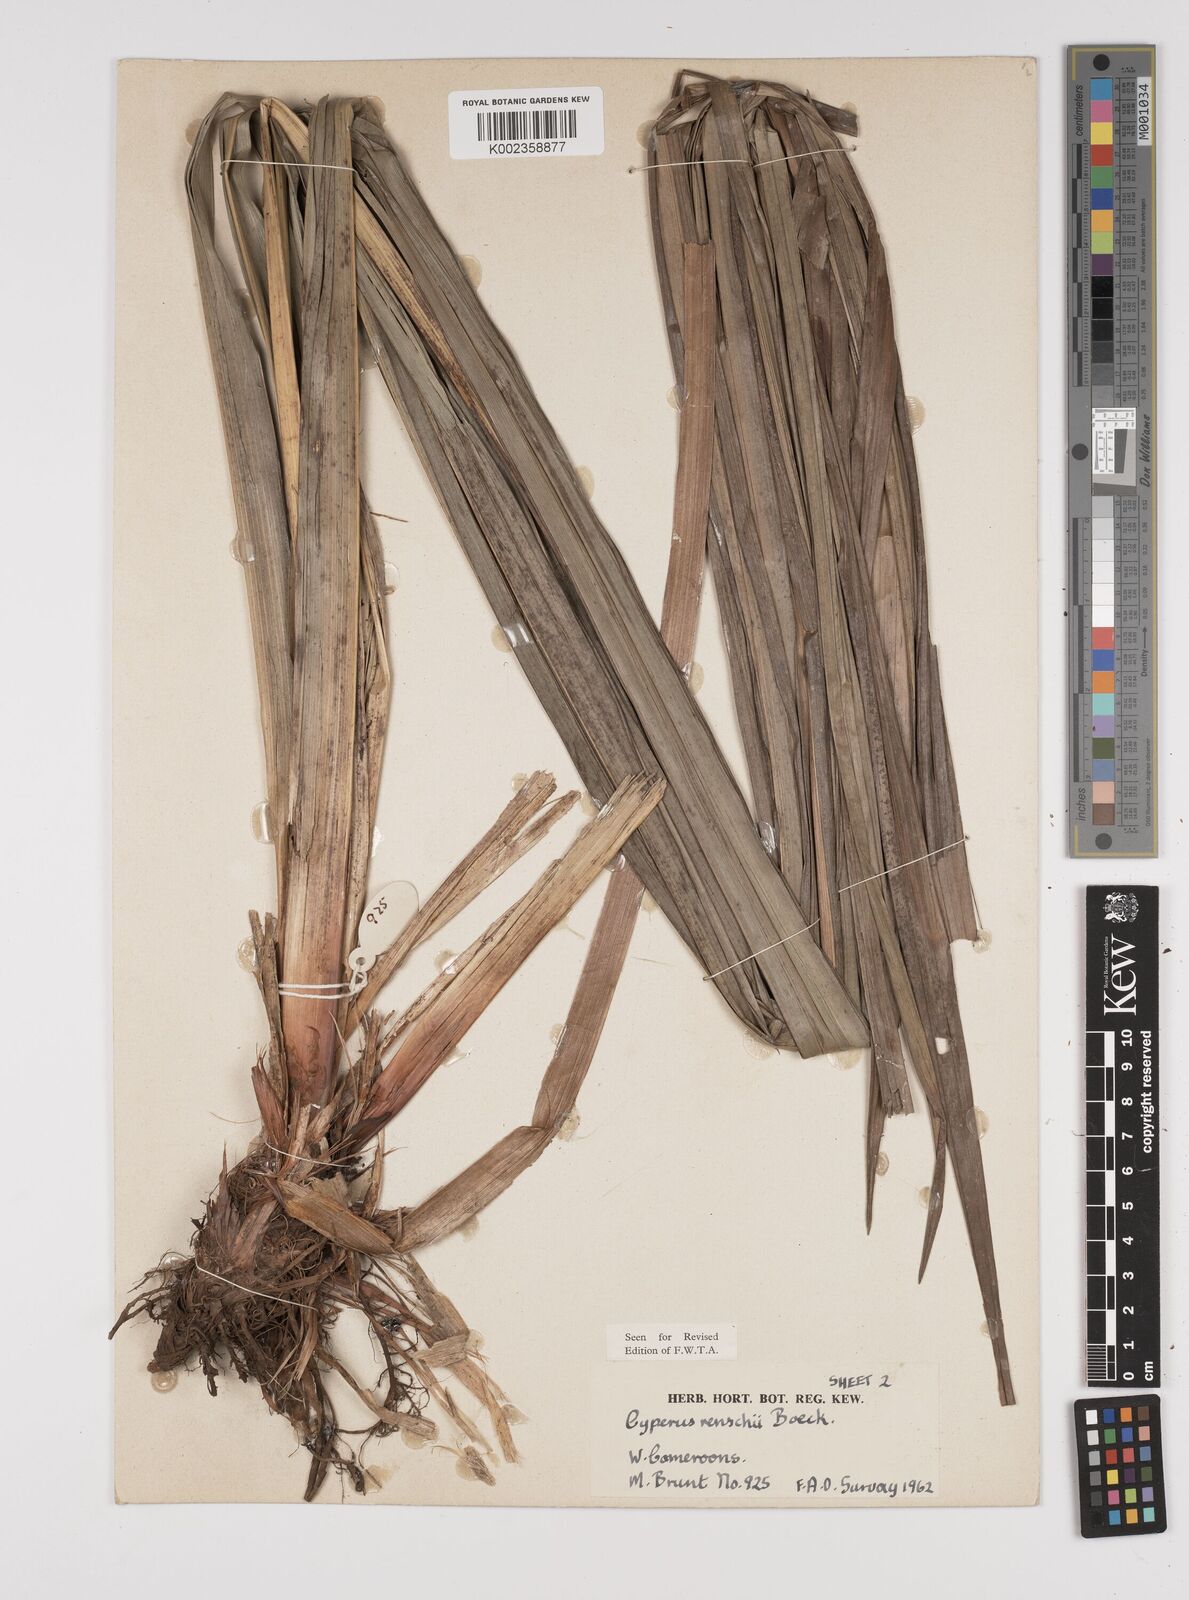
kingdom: Plantae
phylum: Tracheophyta
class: Liliopsida
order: Poales
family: Cyperaceae
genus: Cyperus
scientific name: Cyperus renschii
